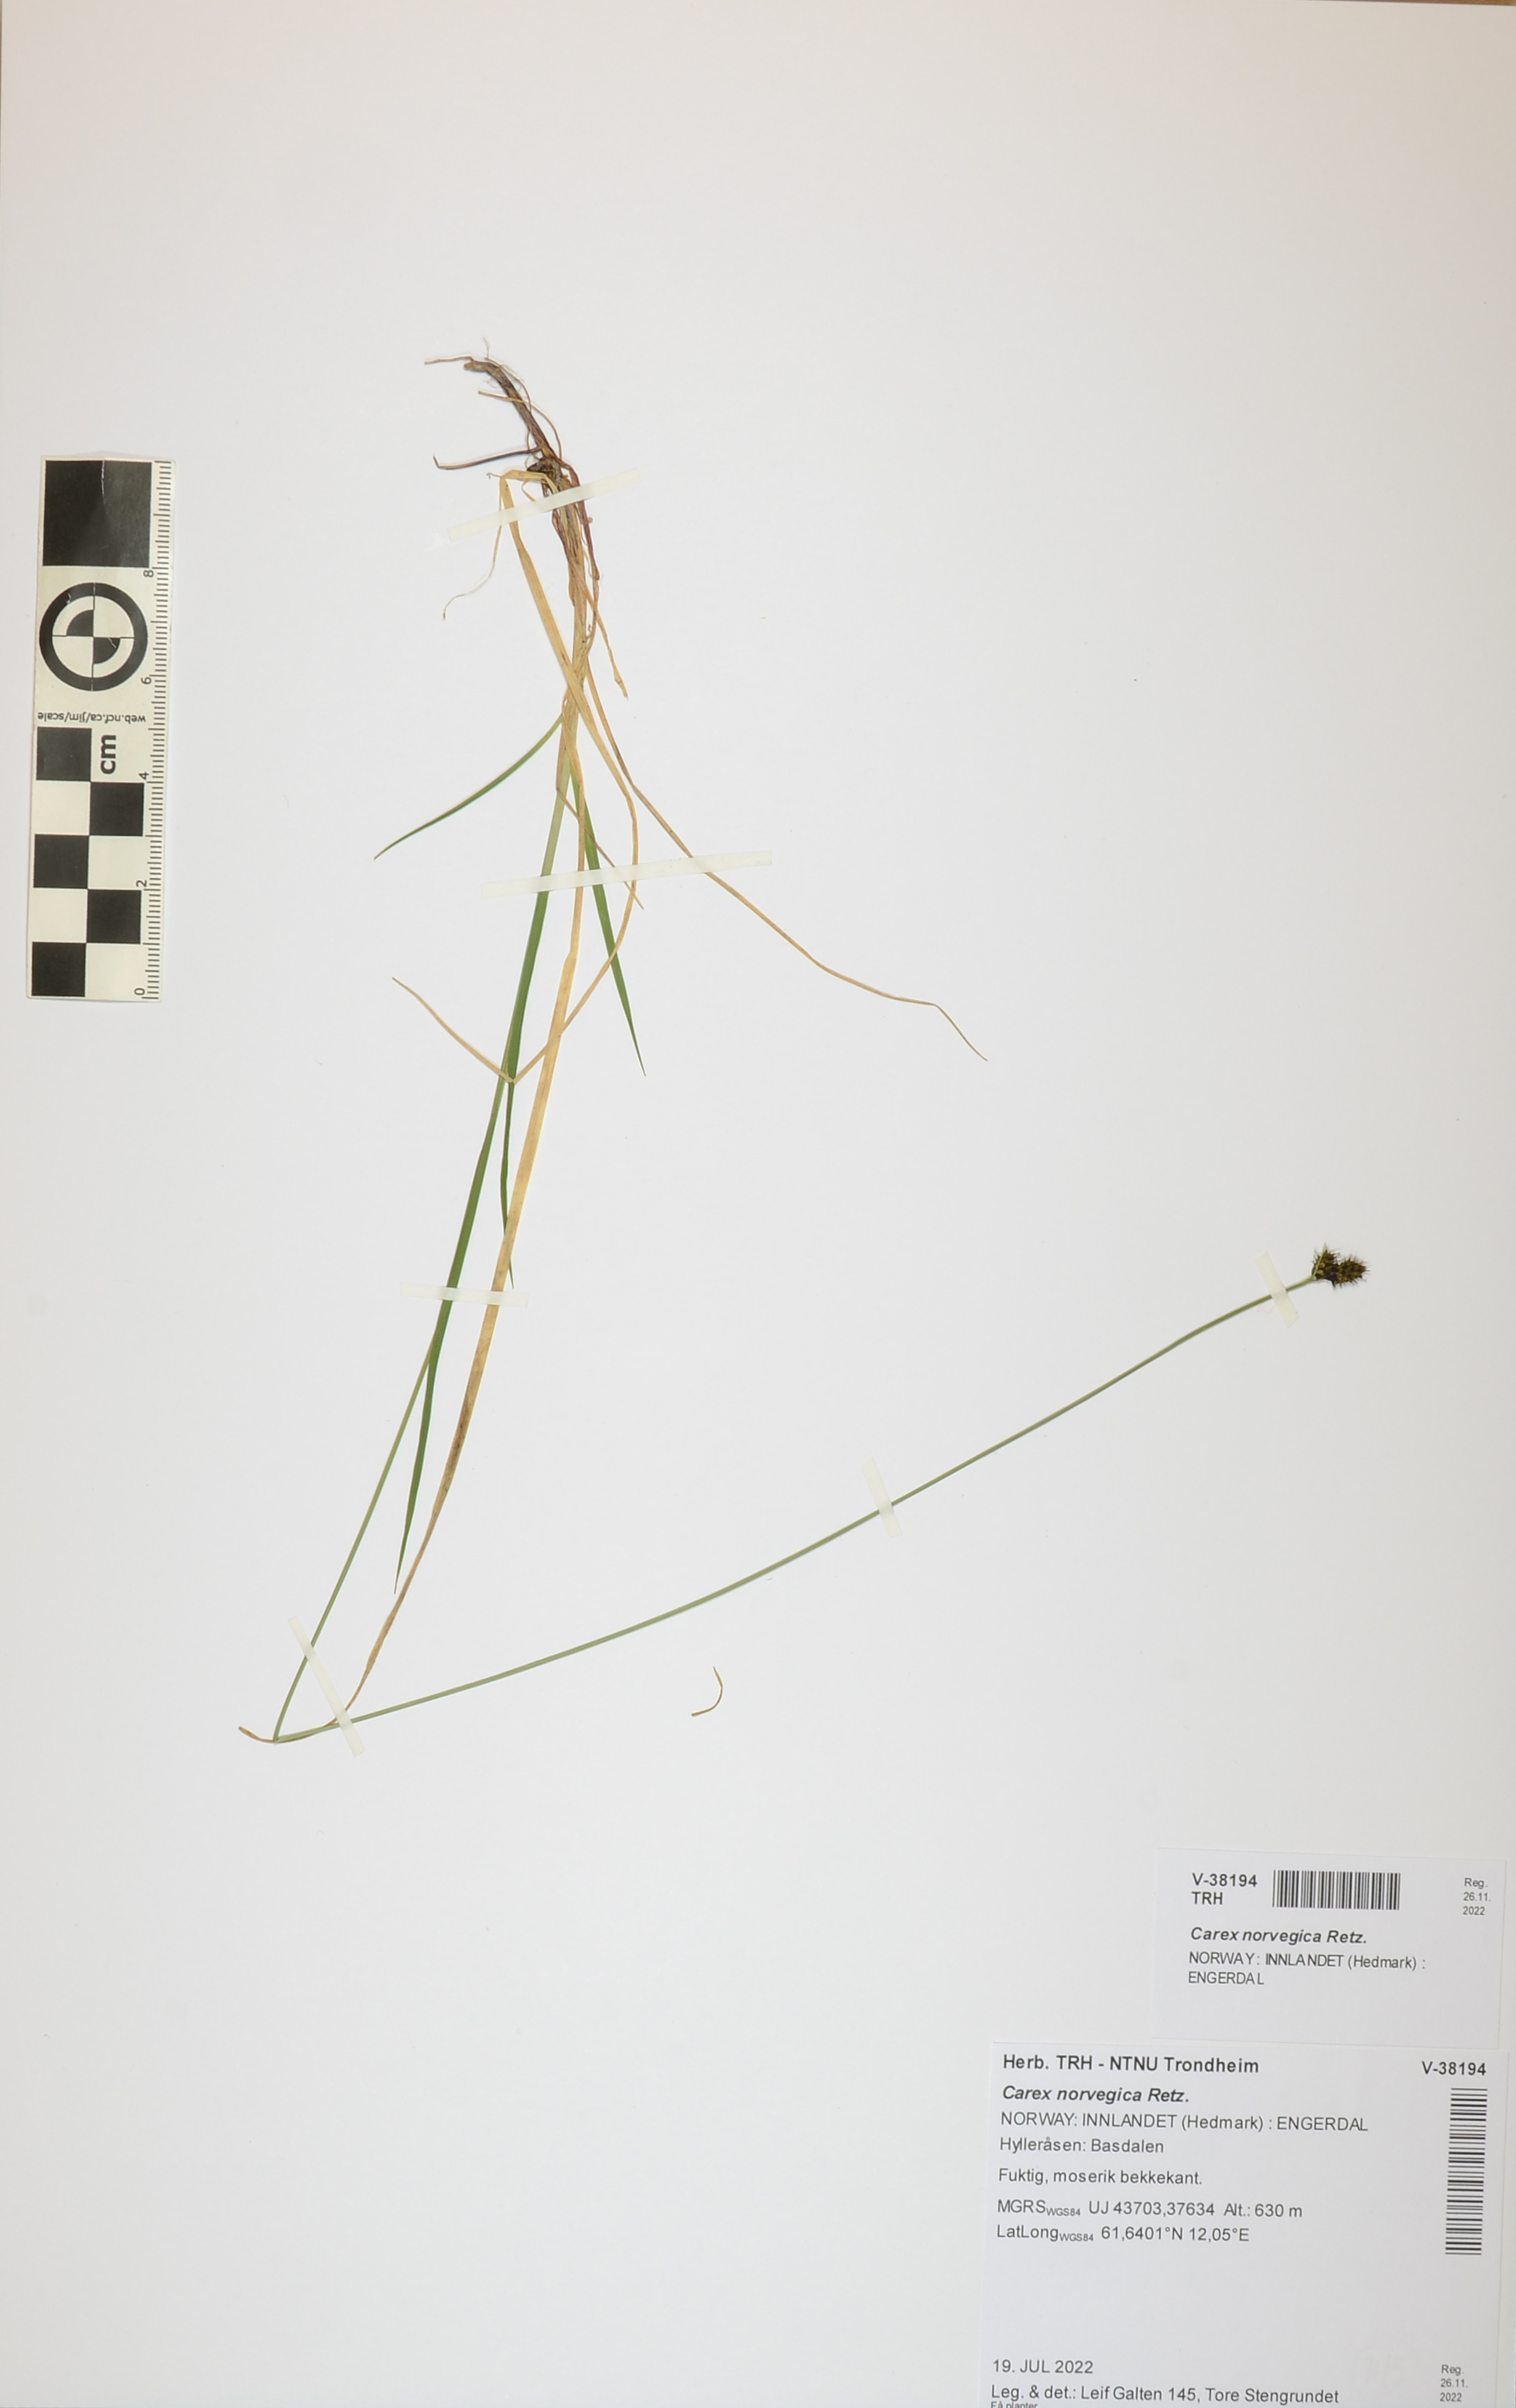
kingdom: Plantae
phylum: Tracheophyta
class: Liliopsida
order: Poales
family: Cyperaceae
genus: Carex
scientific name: Carex norvegica
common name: Close-headed alpine-sedge
